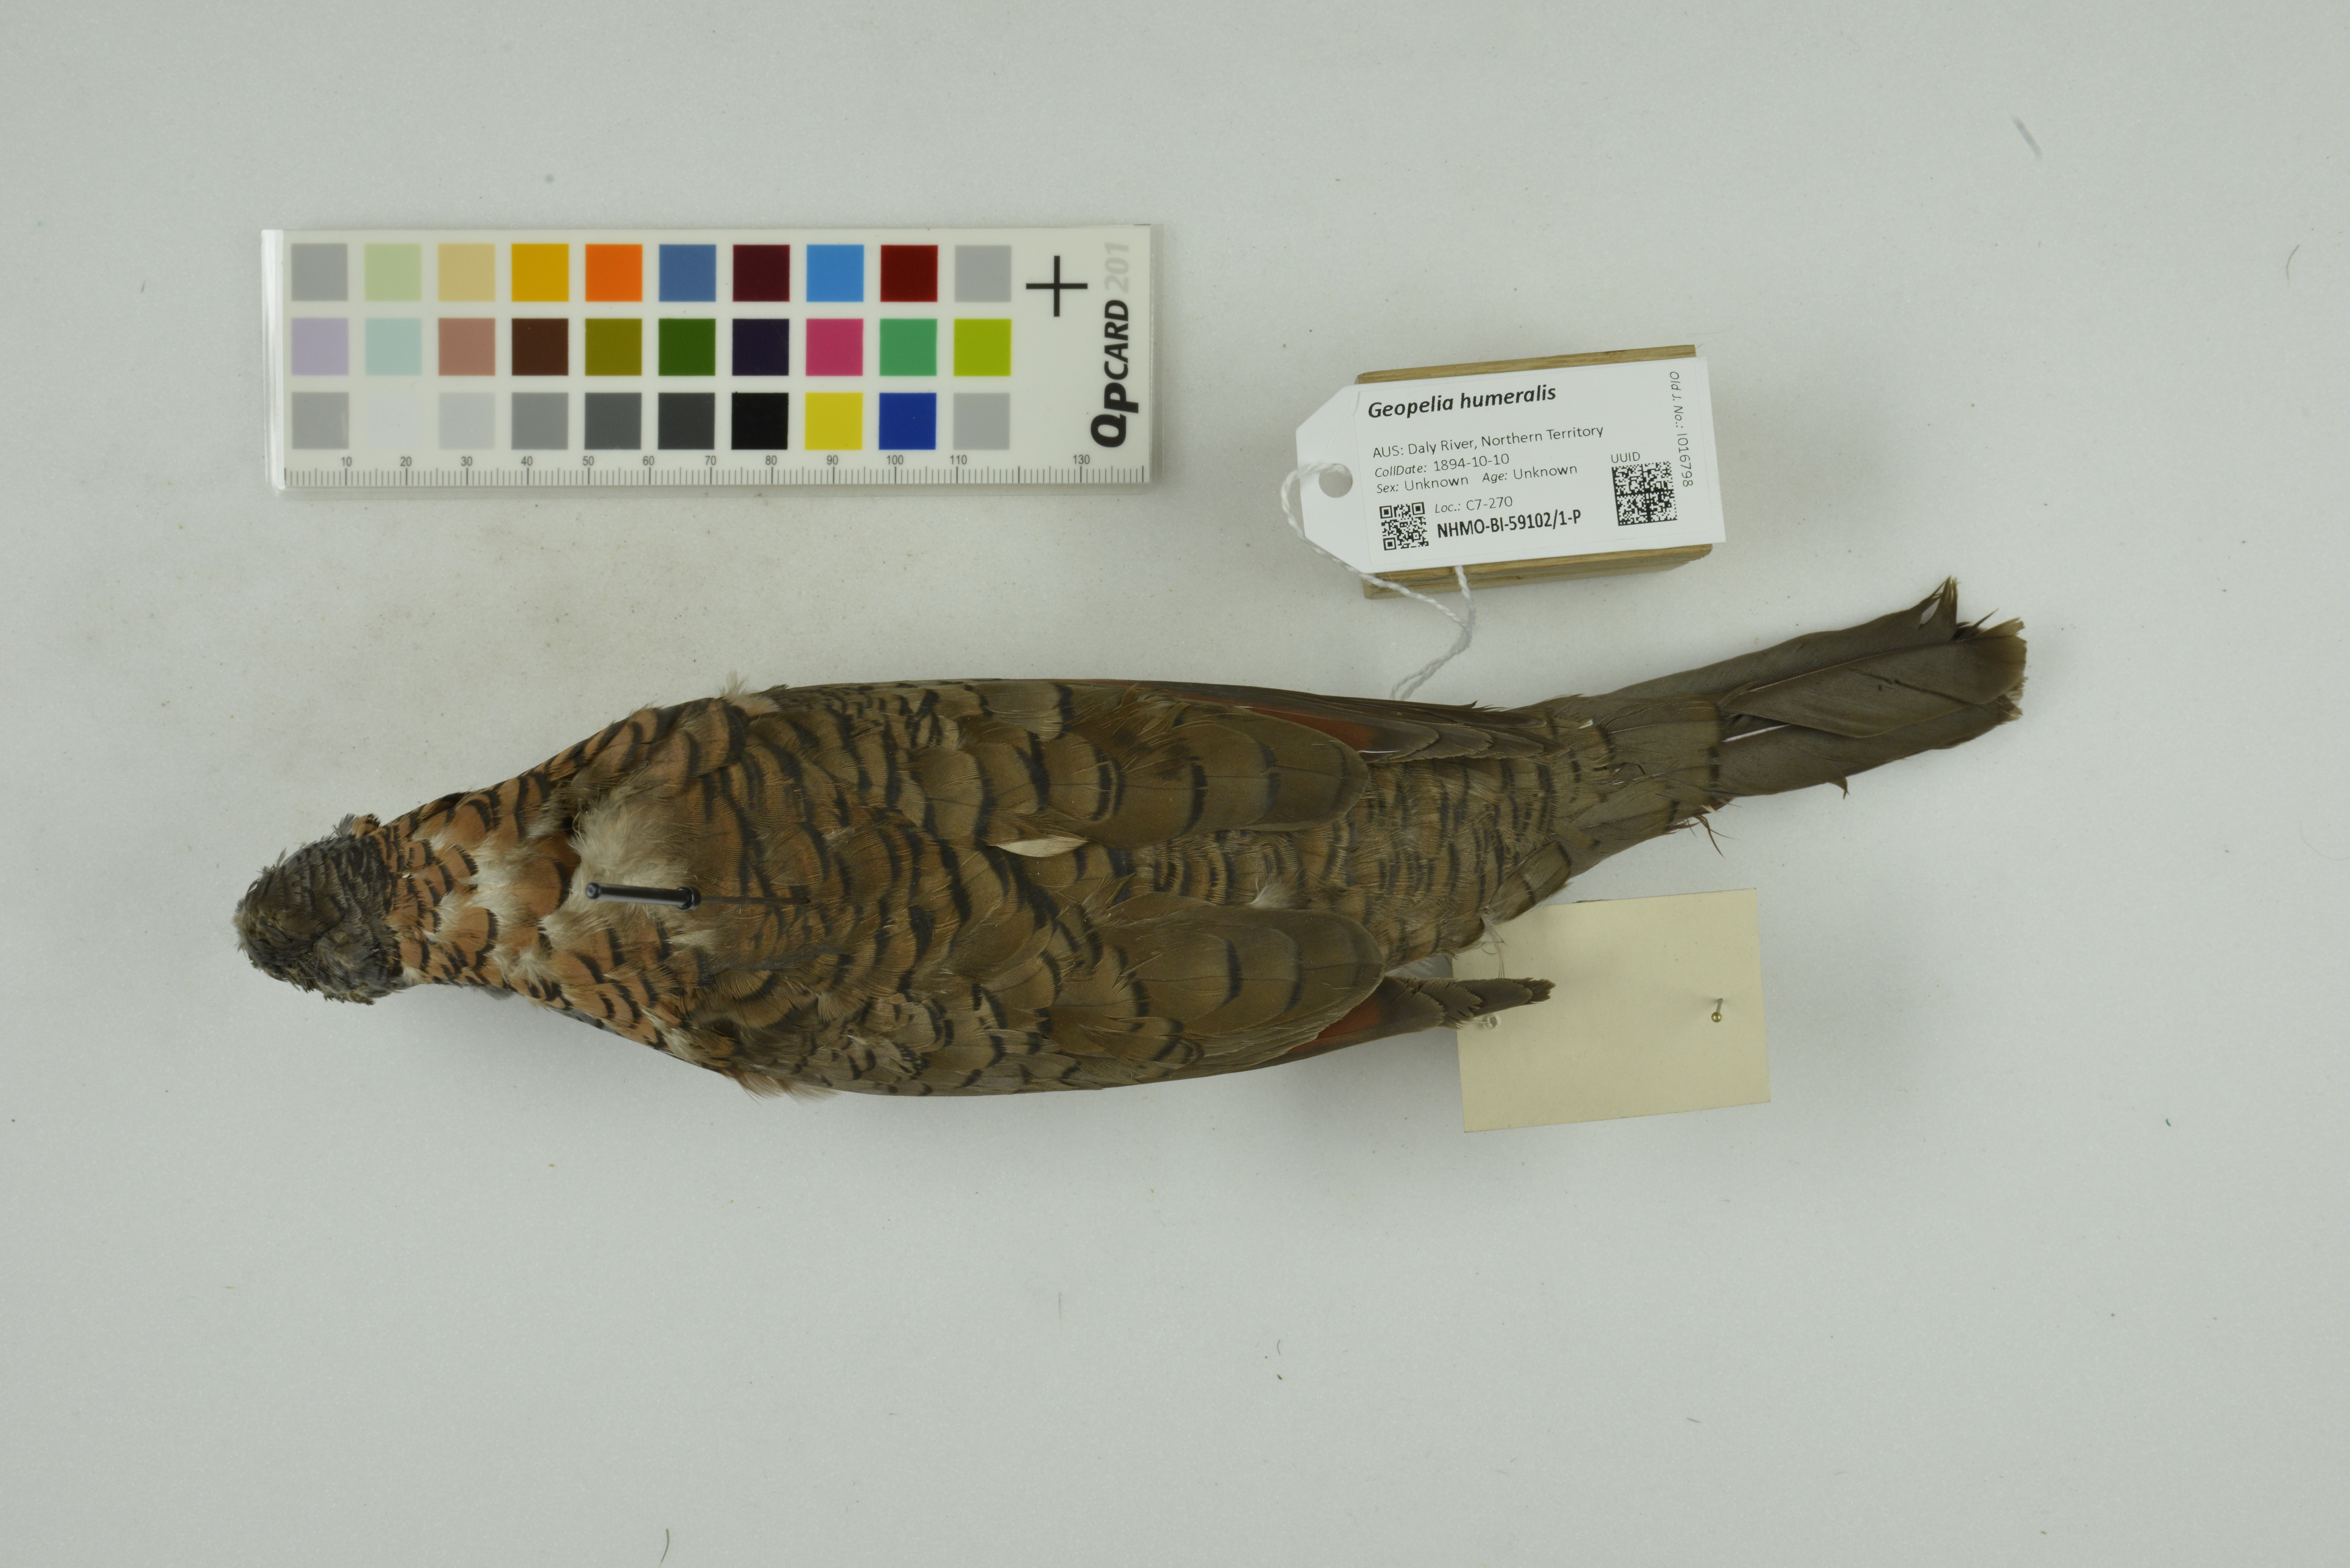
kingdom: Animalia
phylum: Chordata
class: Aves
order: Columbiformes
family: Columbidae
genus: Geopelia
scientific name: Geopelia humeralis
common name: Bar-shouldered dove
